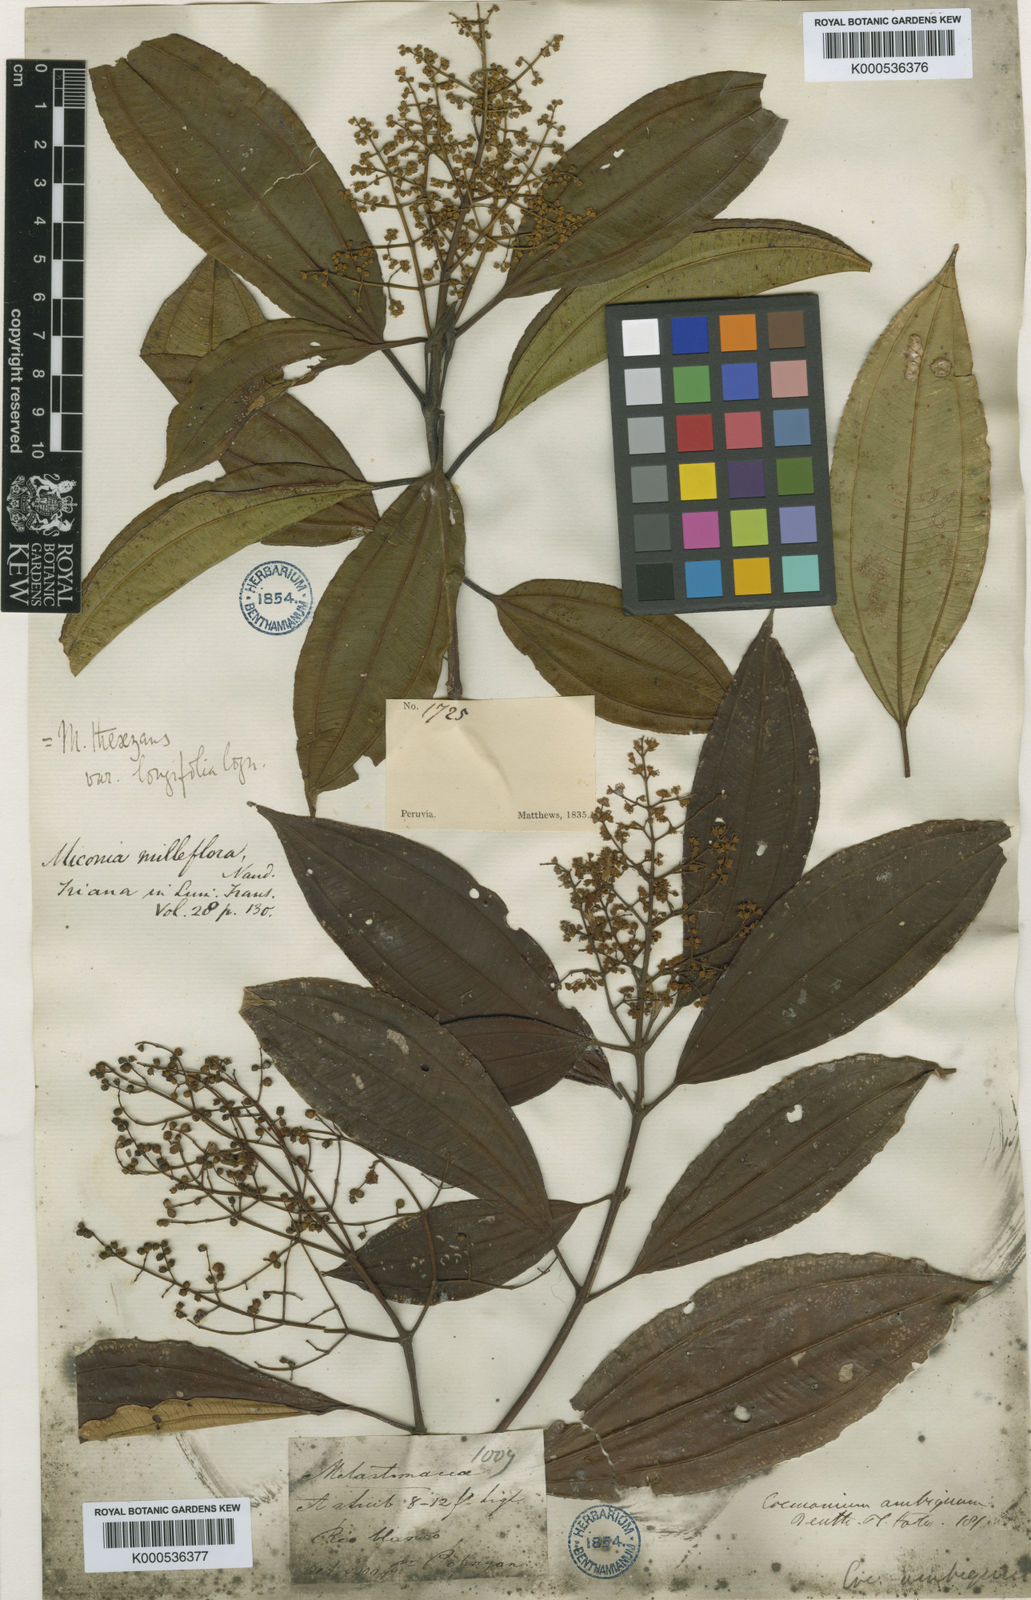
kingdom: Plantae
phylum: Tracheophyta
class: Magnoliopsida
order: Myrtales
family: Melastomataceae
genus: Miconia
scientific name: Miconia
